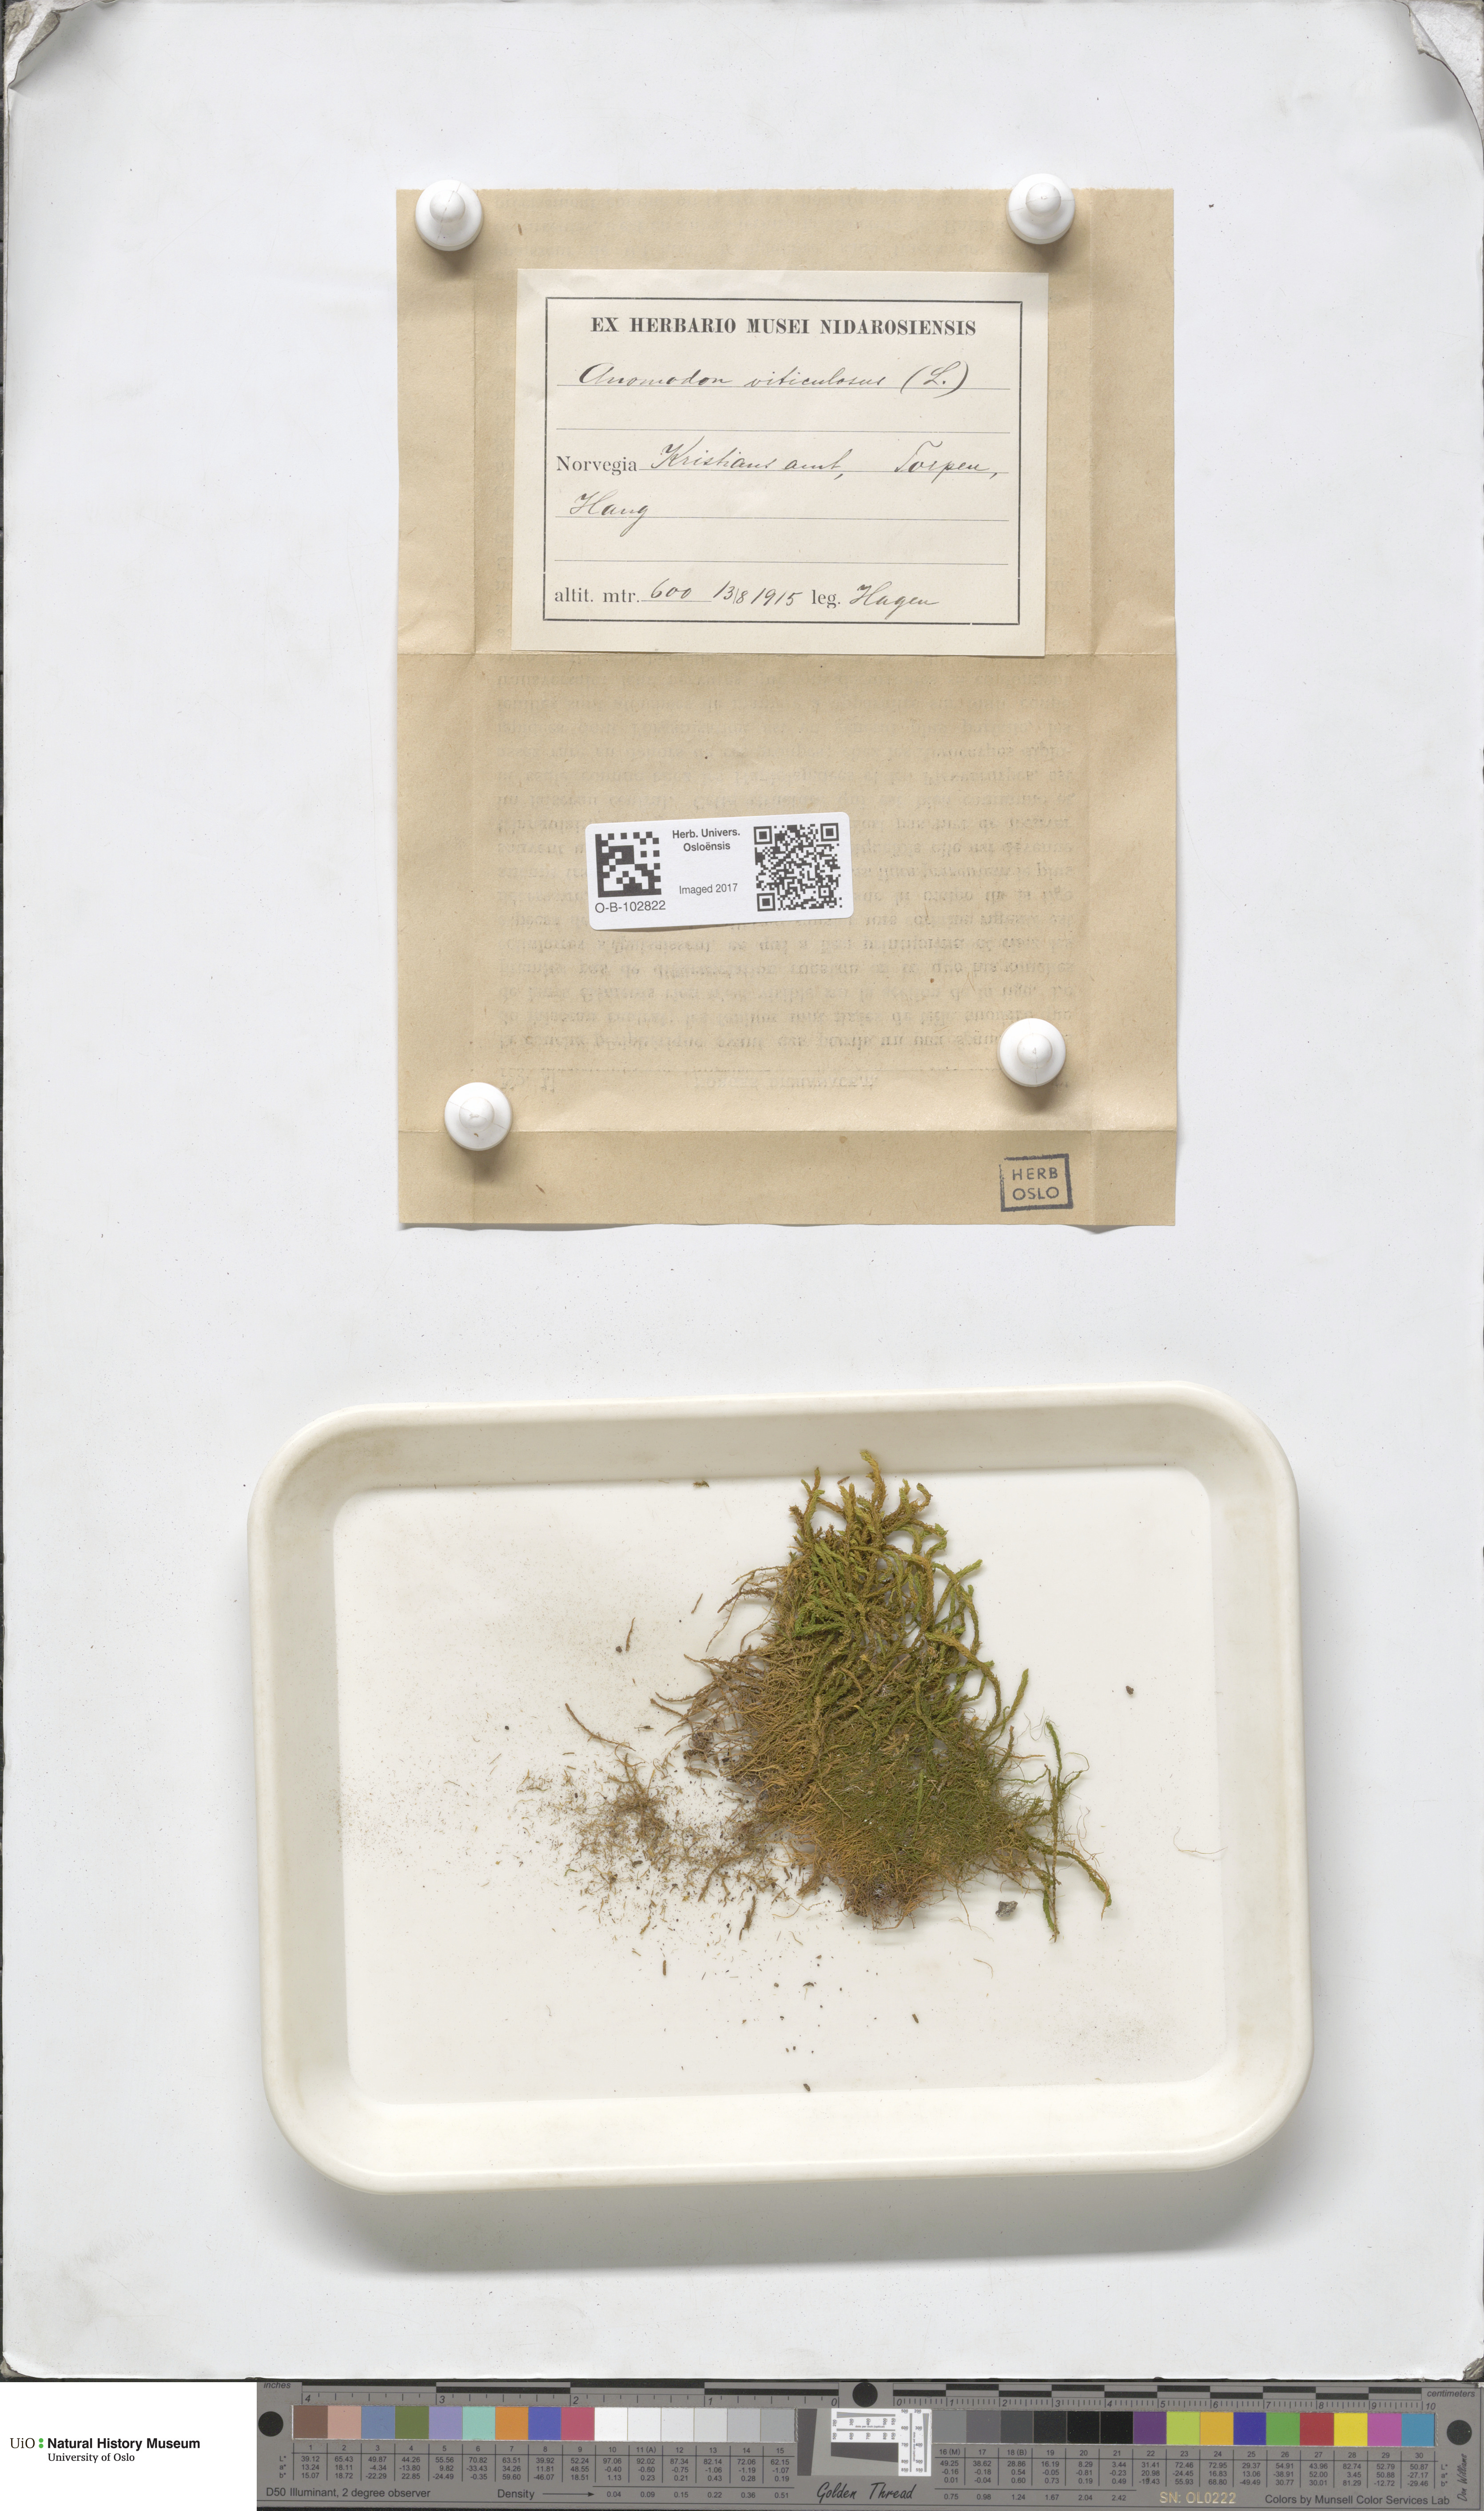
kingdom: Plantae
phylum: Bryophyta
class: Bryopsida
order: Hypnales
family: Anomodontaceae
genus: Anomodon
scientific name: Anomodon viticulosus
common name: Tall anomodon
